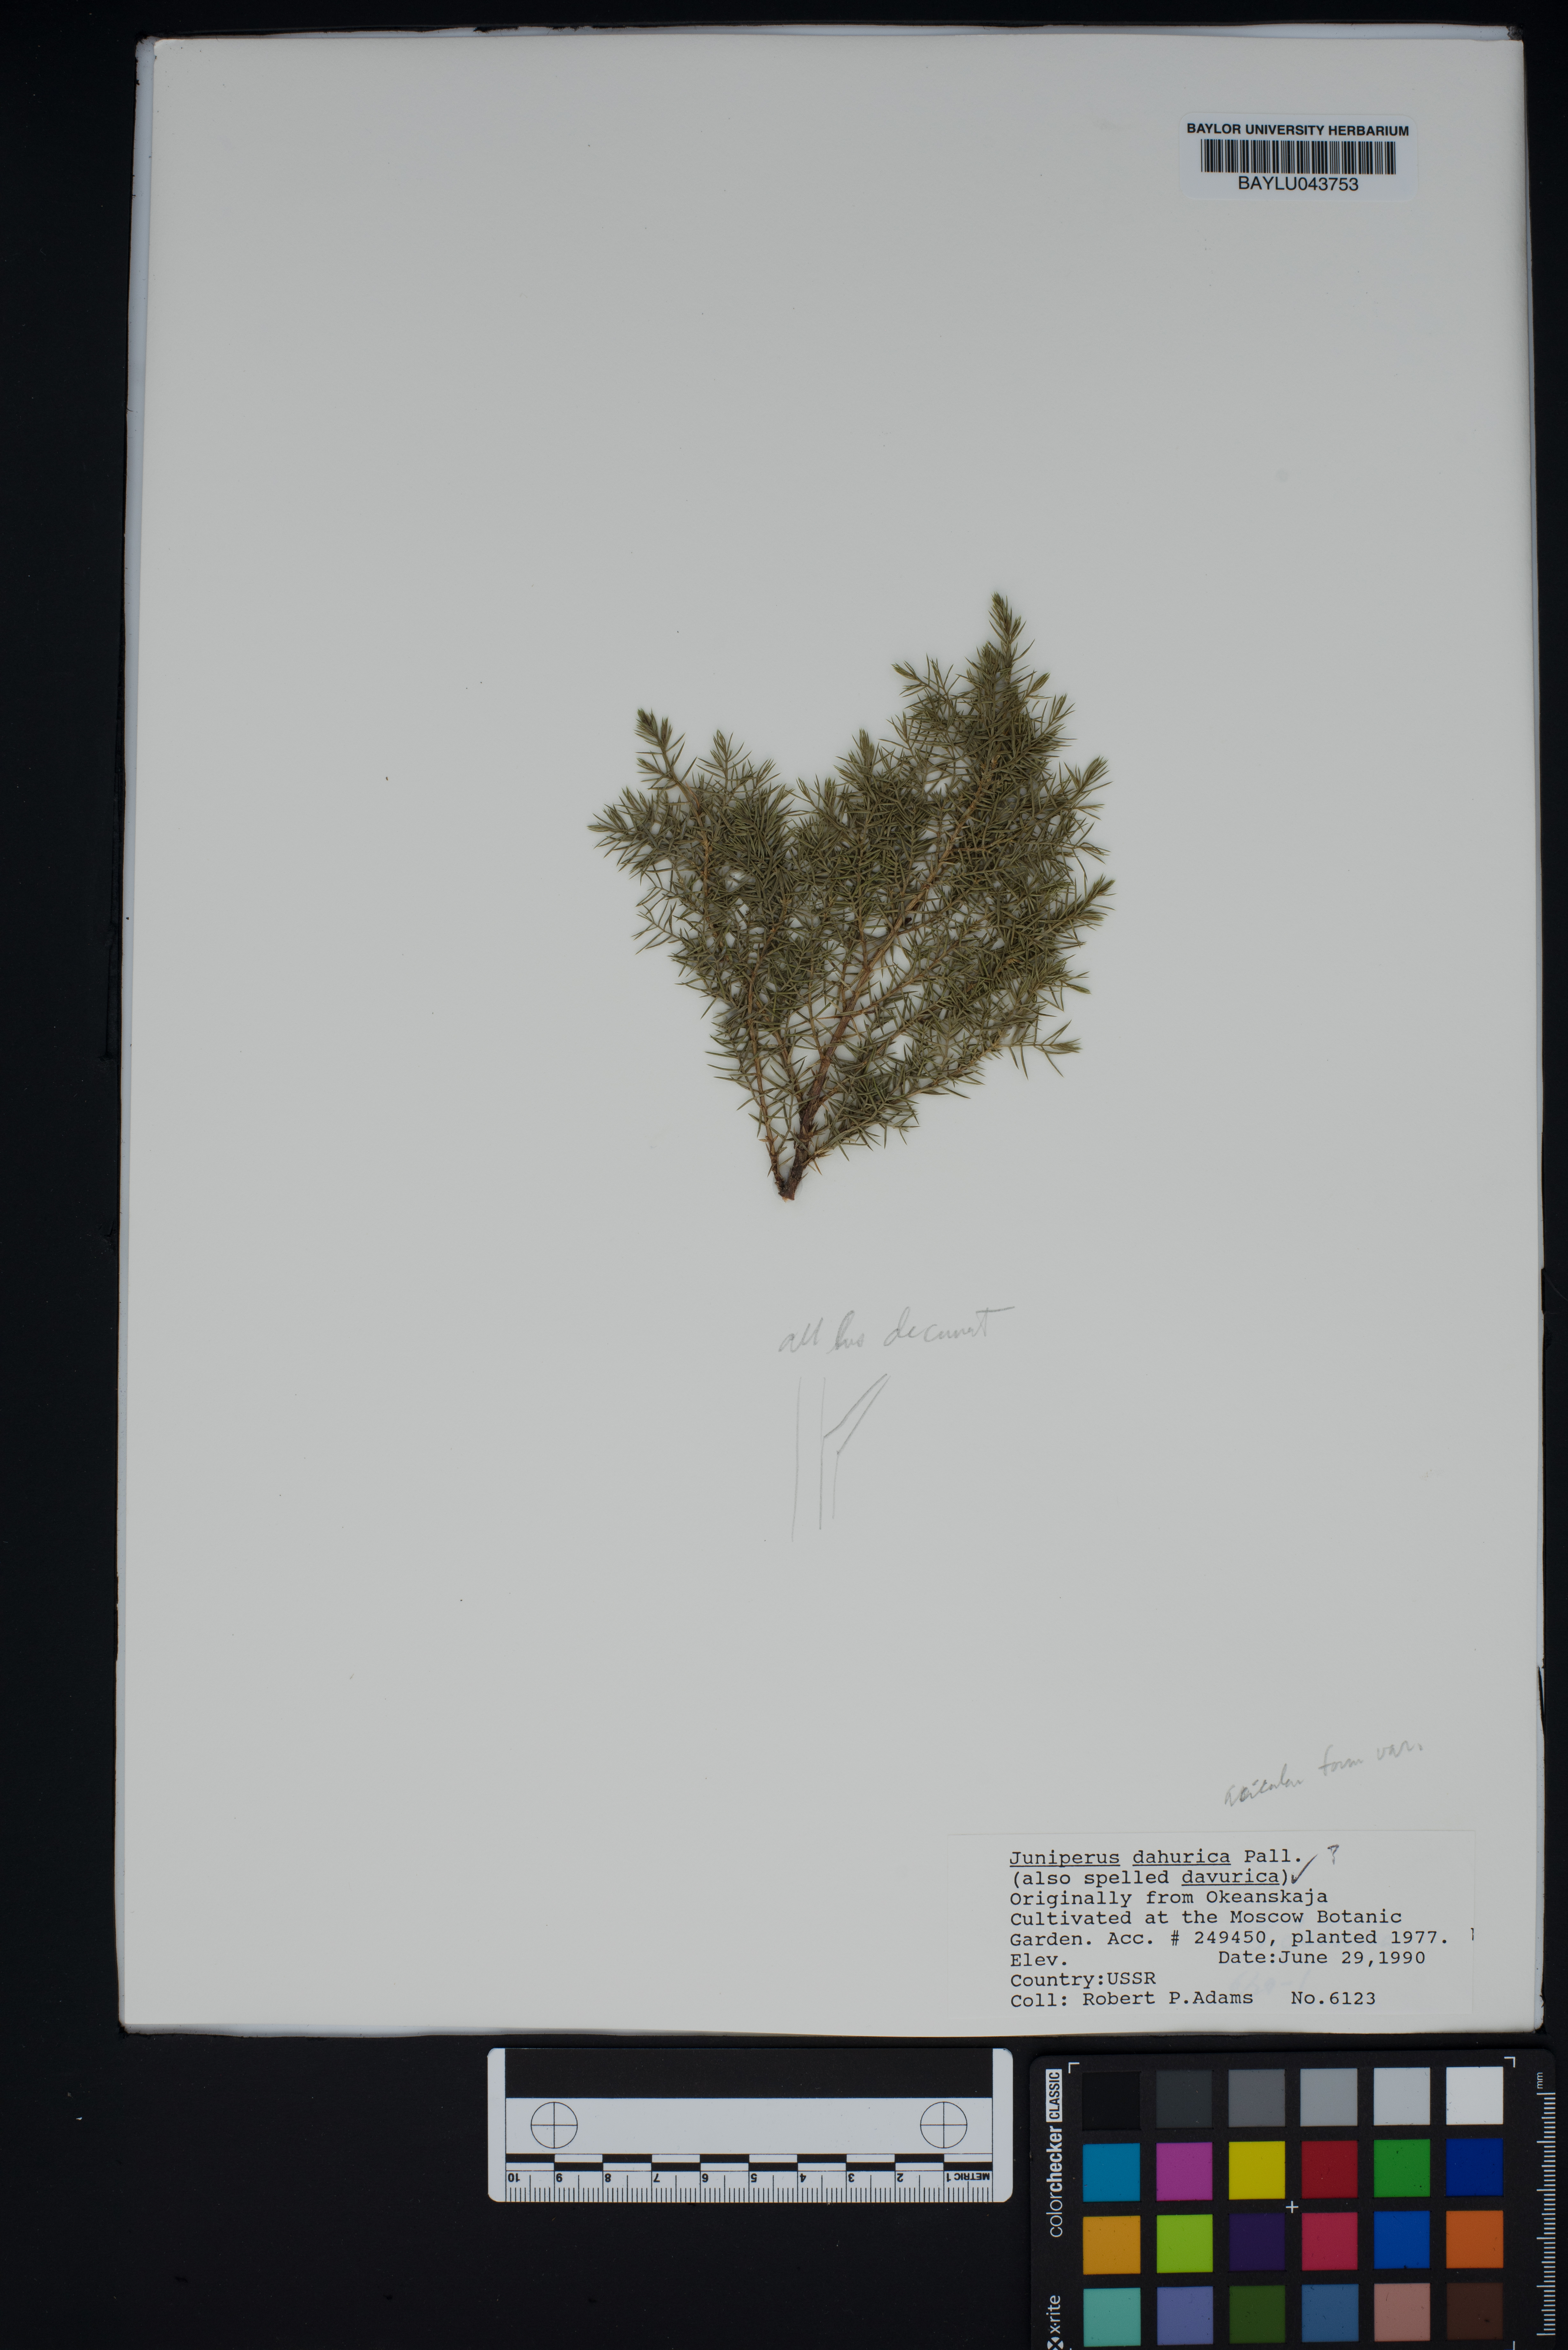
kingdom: Plantae
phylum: Tracheophyta
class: Pinopsida
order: Pinales
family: Cupressaceae
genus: Juniperus
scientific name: Juniperus sabina
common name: Savin
